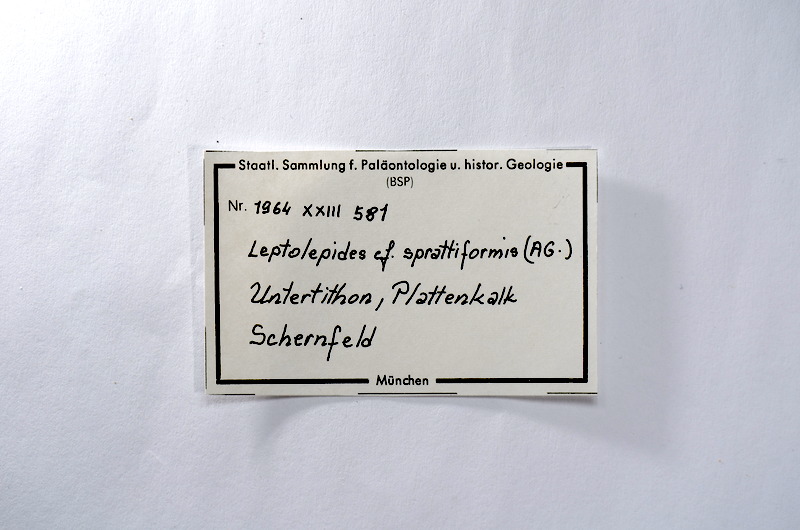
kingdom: Animalia
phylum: Chordata
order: Salmoniformes
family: Orthogonikleithridae
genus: Leptolepides
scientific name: Leptolepides sprattiformis
